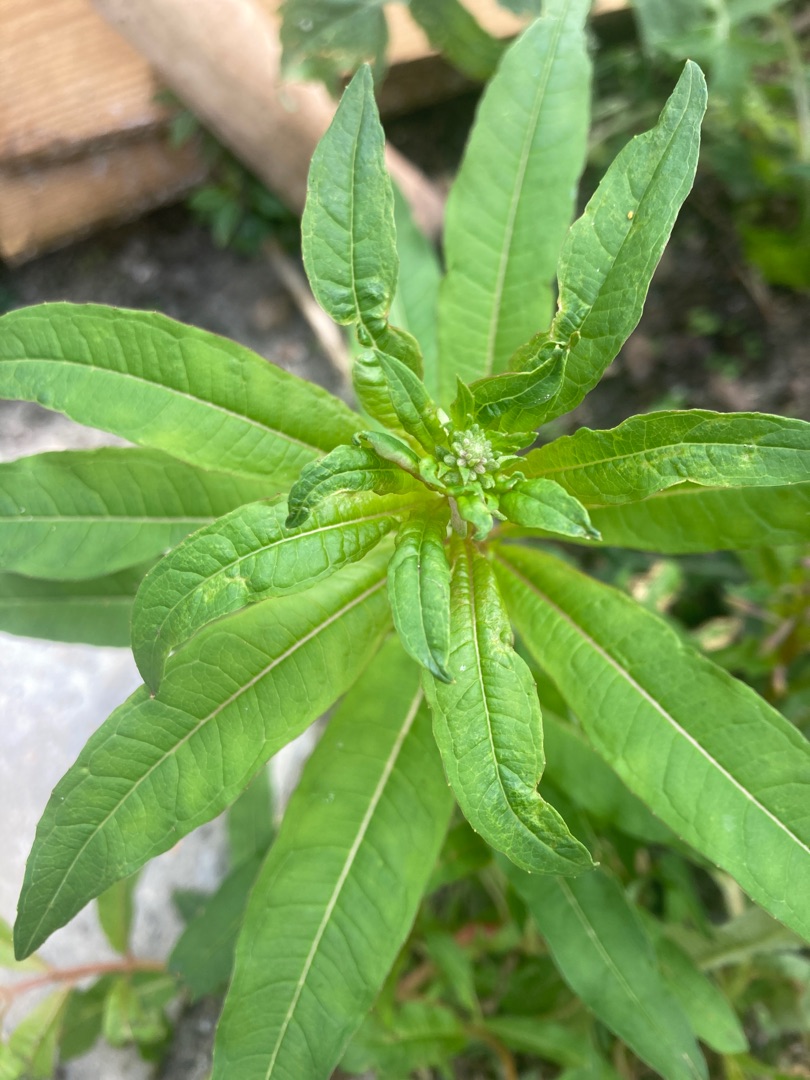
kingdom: Plantae
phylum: Tracheophyta
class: Magnoliopsida
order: Myrtales
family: Onagraceae
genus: Chamaenerion
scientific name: Chamaenerion angustifolium
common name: Gederams
